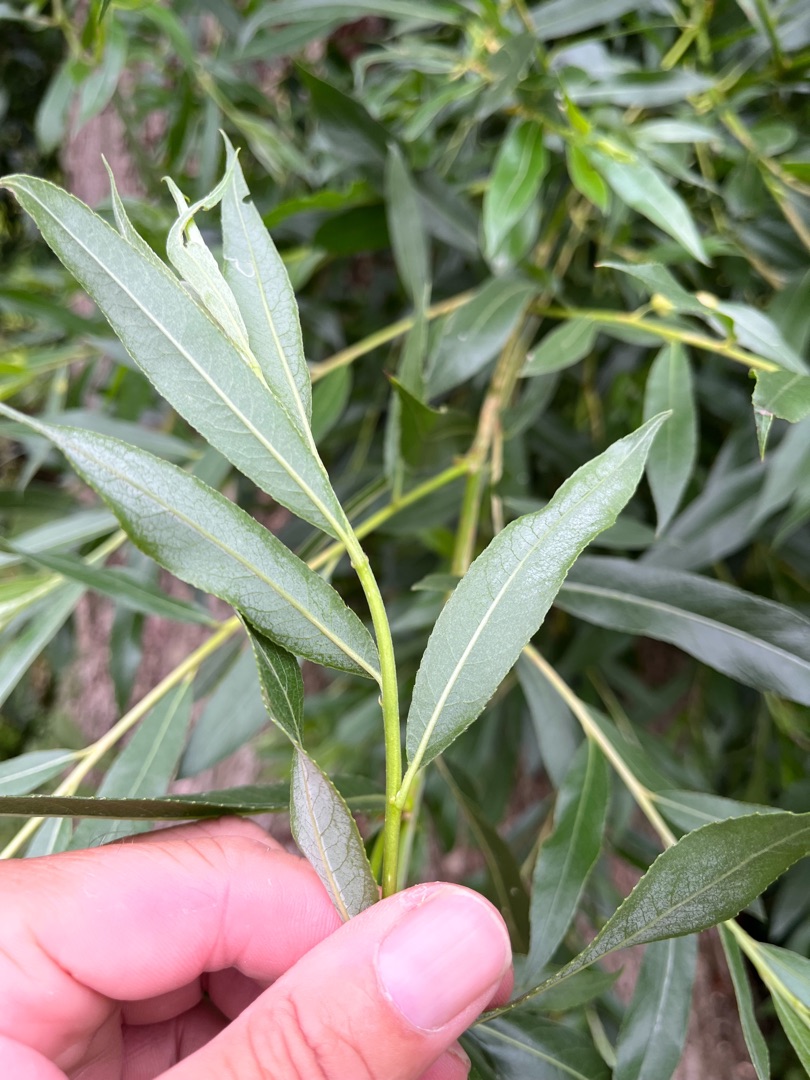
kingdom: Plantae
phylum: Tracheophyta
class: Magnoliopsida
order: Malpighiales
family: Salicaceae
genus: Salix
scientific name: Salix fragilis
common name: Grøn pil
